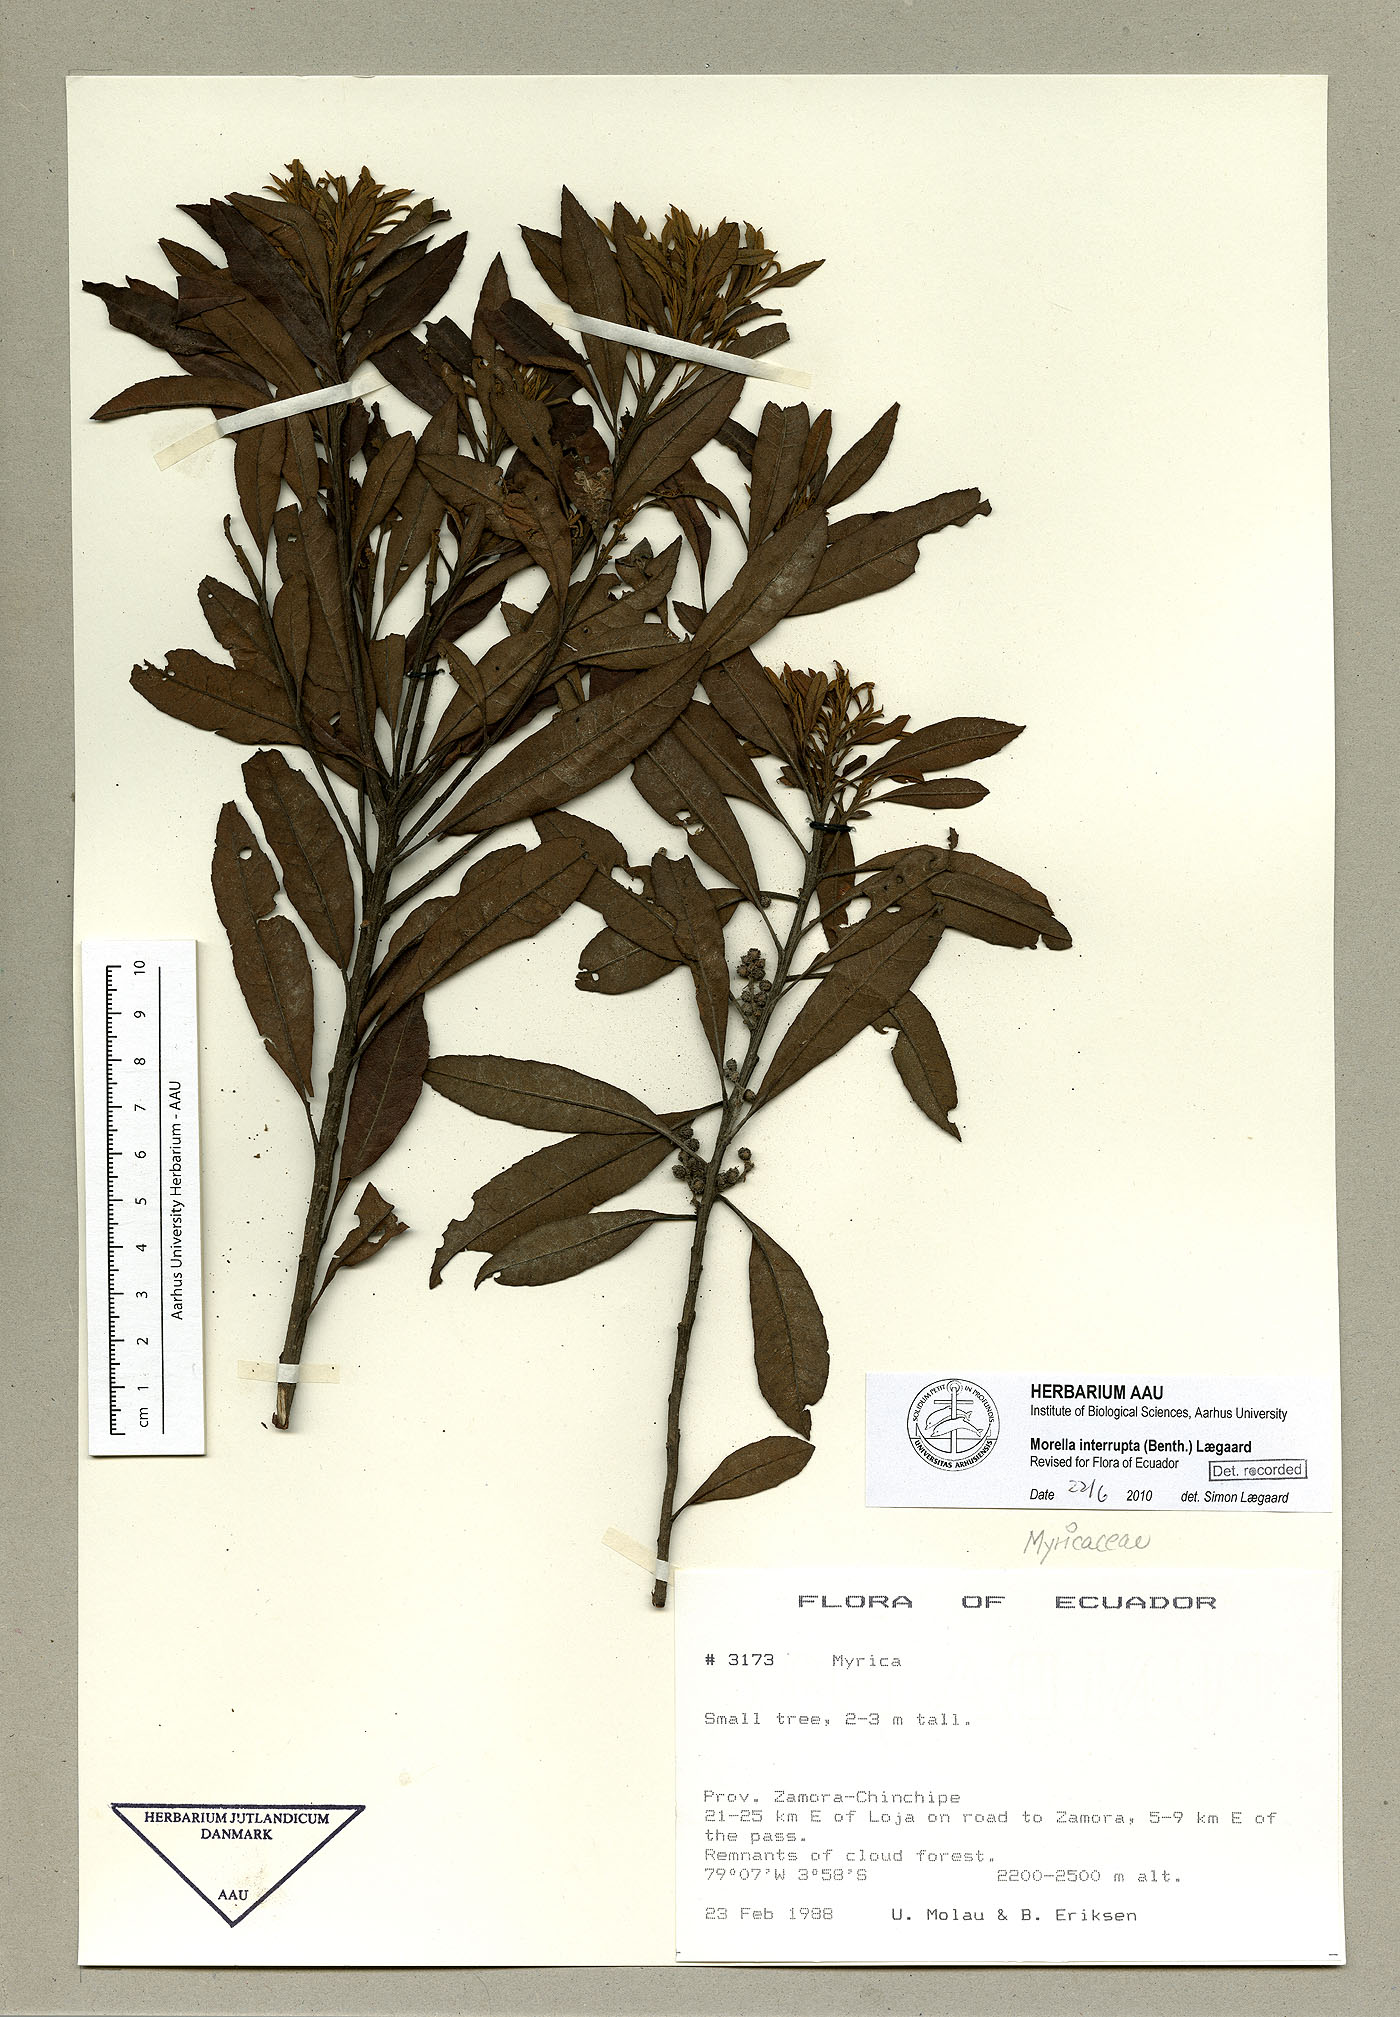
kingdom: Plantae
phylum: Tracheophyta
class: Magnoliopsida
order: Fagales
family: Myricaceae
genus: Morella
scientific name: Morella interrupta
